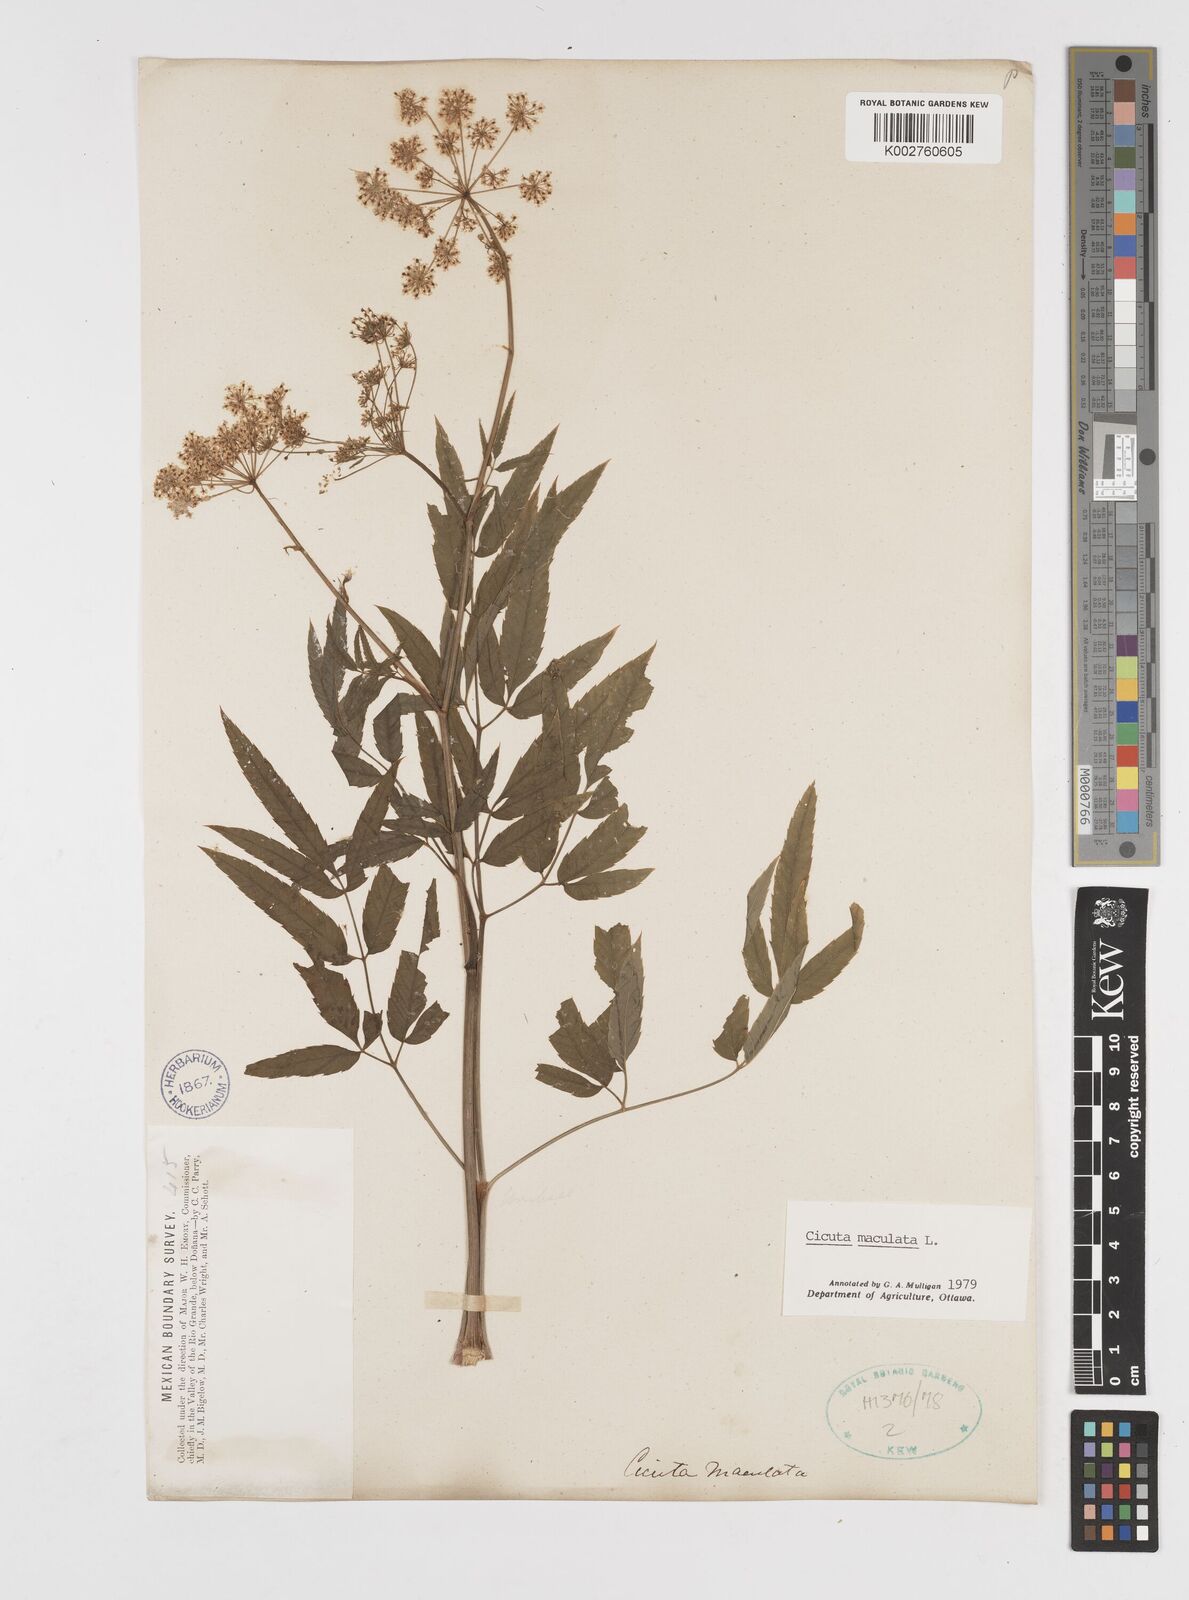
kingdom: Plantae
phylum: Tracheophyta
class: Magnoliopsida
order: Apiales
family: Apiaceae
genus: Cicuta
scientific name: Cicuta maculata
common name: Spotted cowbane
